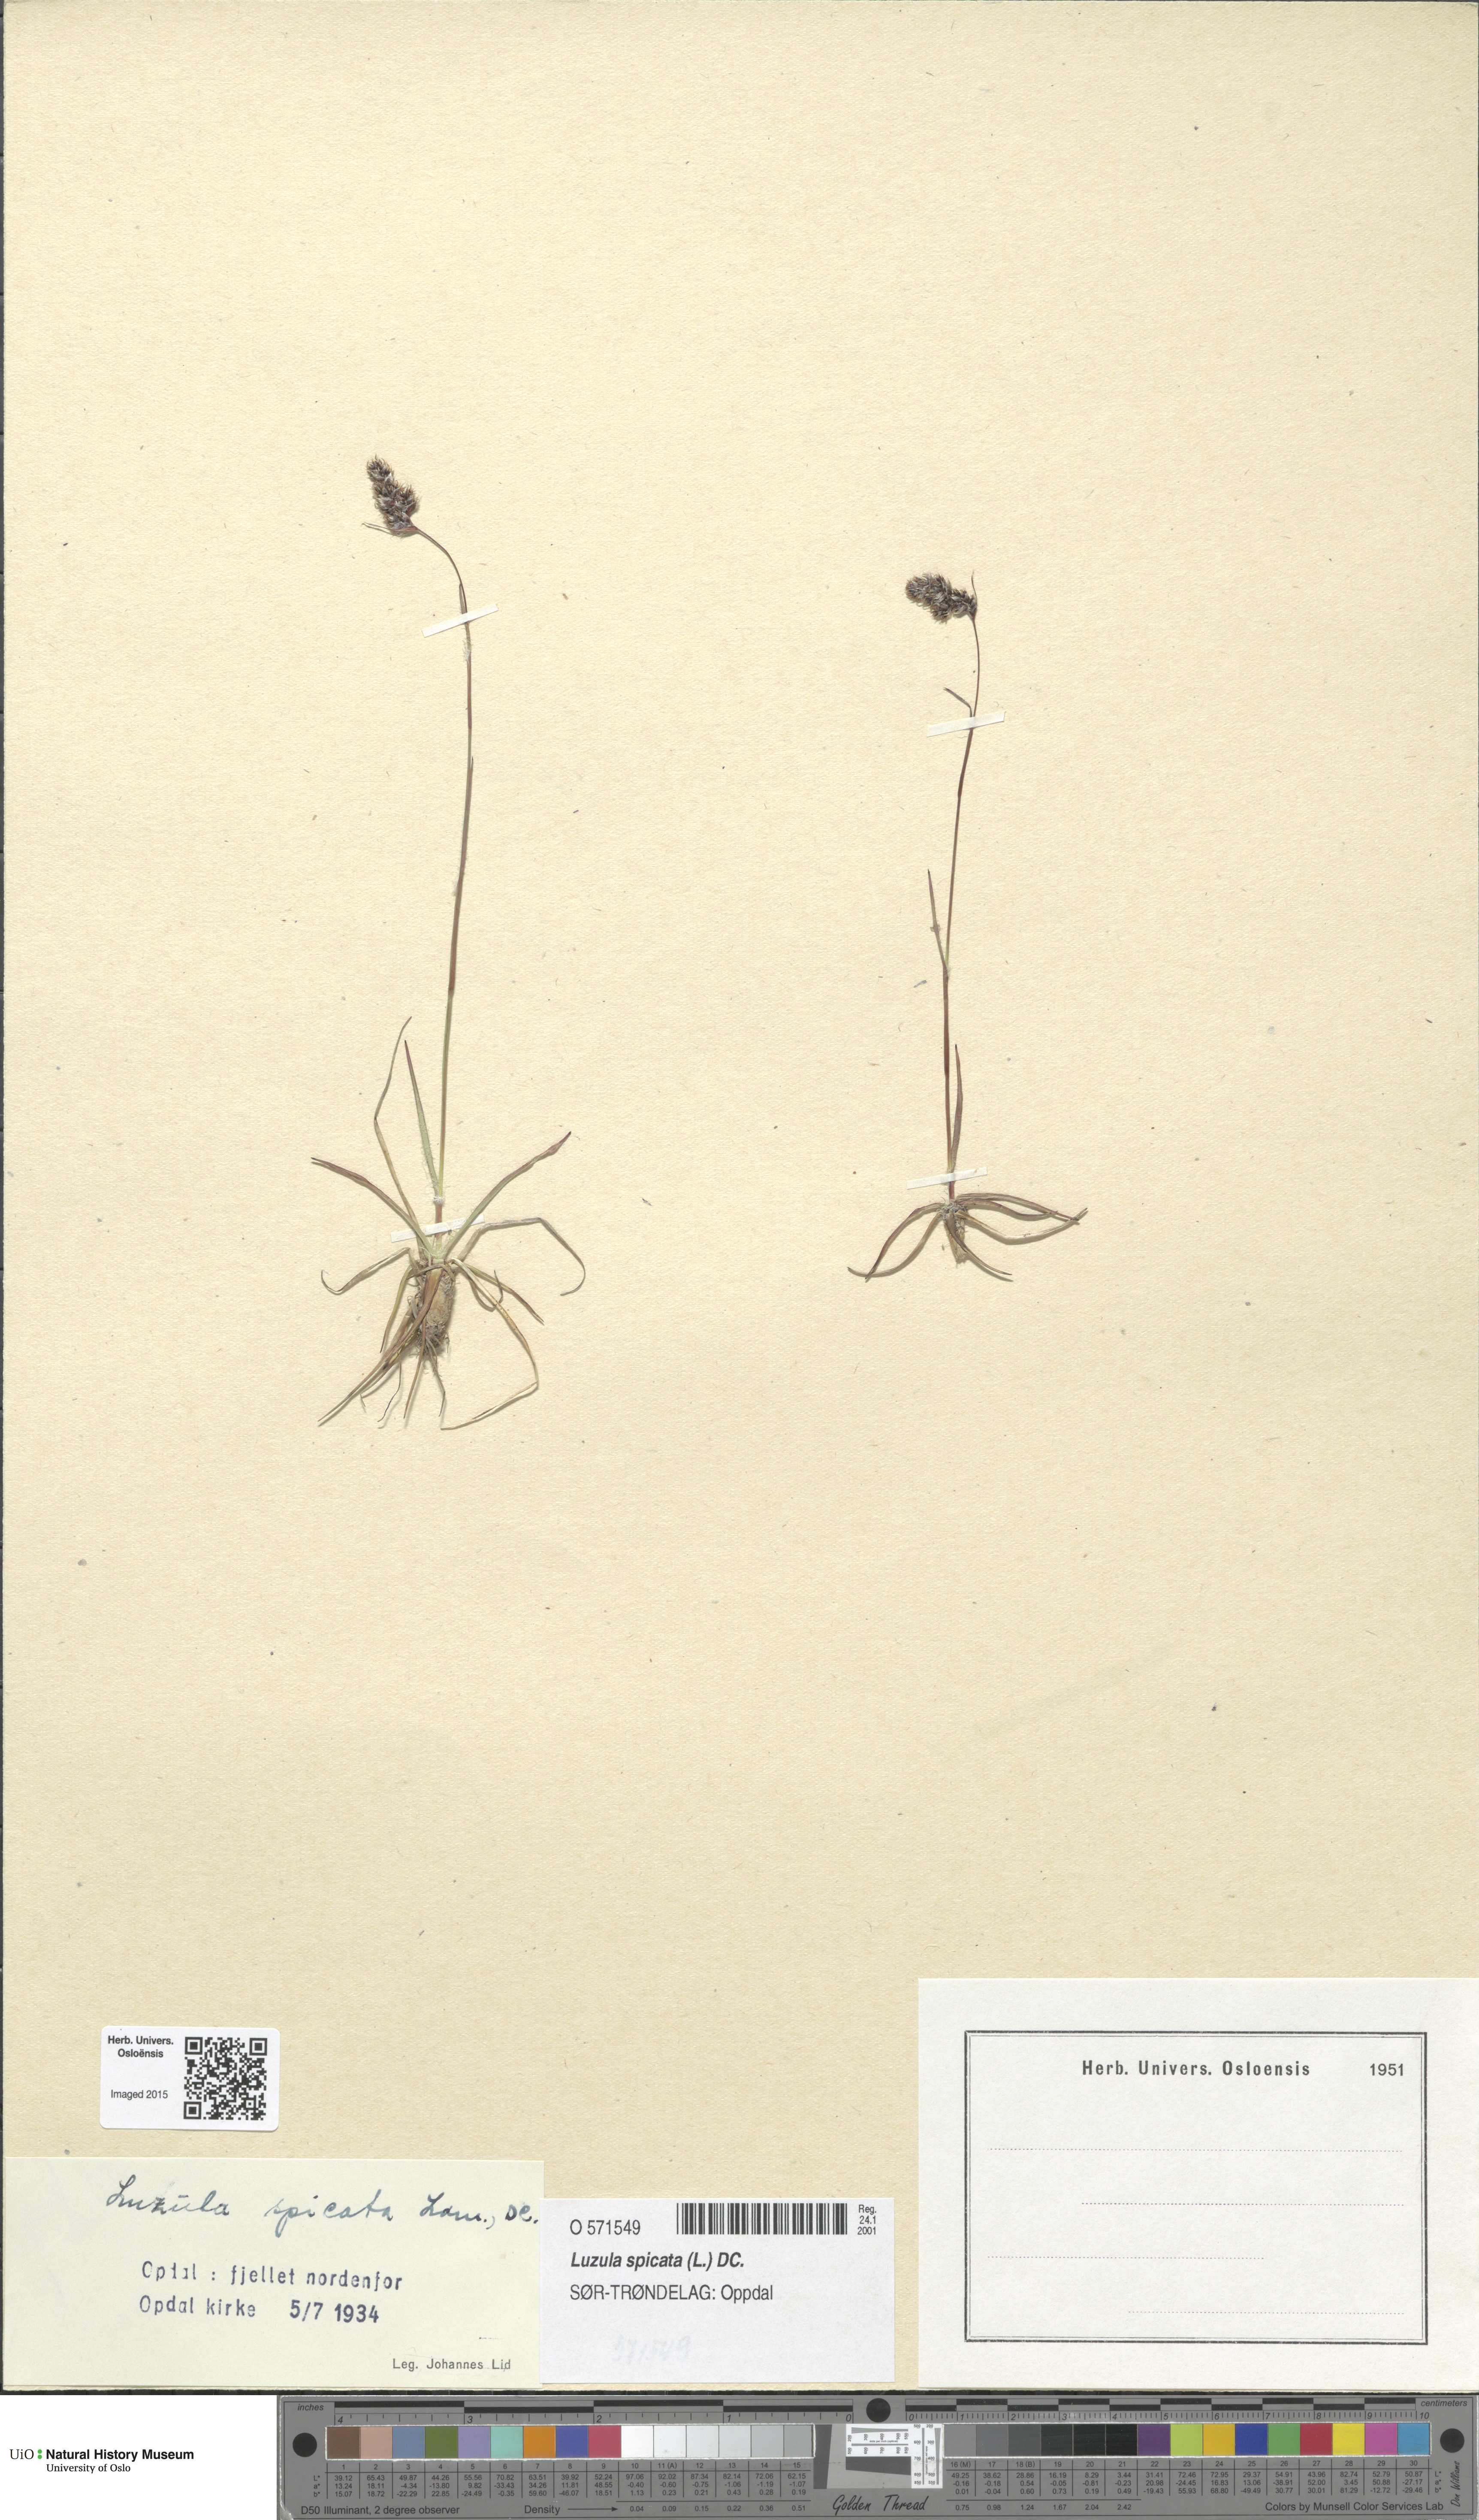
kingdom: Plantae
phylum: Tracheophyta
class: Liliopsida
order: Poales
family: Juncaceae
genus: Luzula
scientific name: Luzula spicata
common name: Spiked wood-rush
